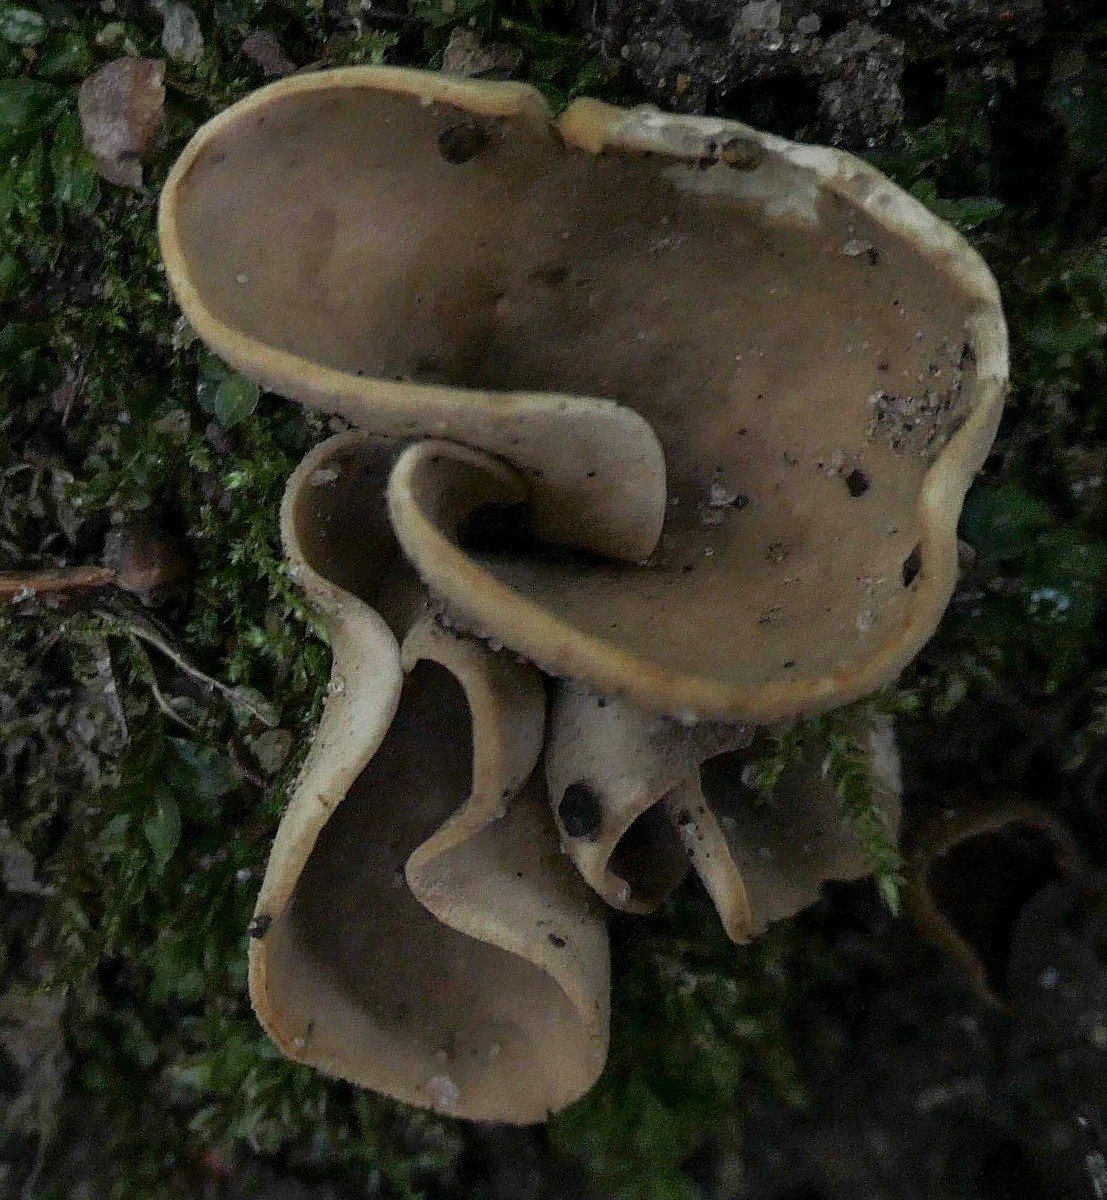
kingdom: Fungi
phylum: Ascomycota
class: Pezizomycetes
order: Pezizales
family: Otideaceae
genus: Otidea
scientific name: Otidea alutacea
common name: læder-ørebæger
